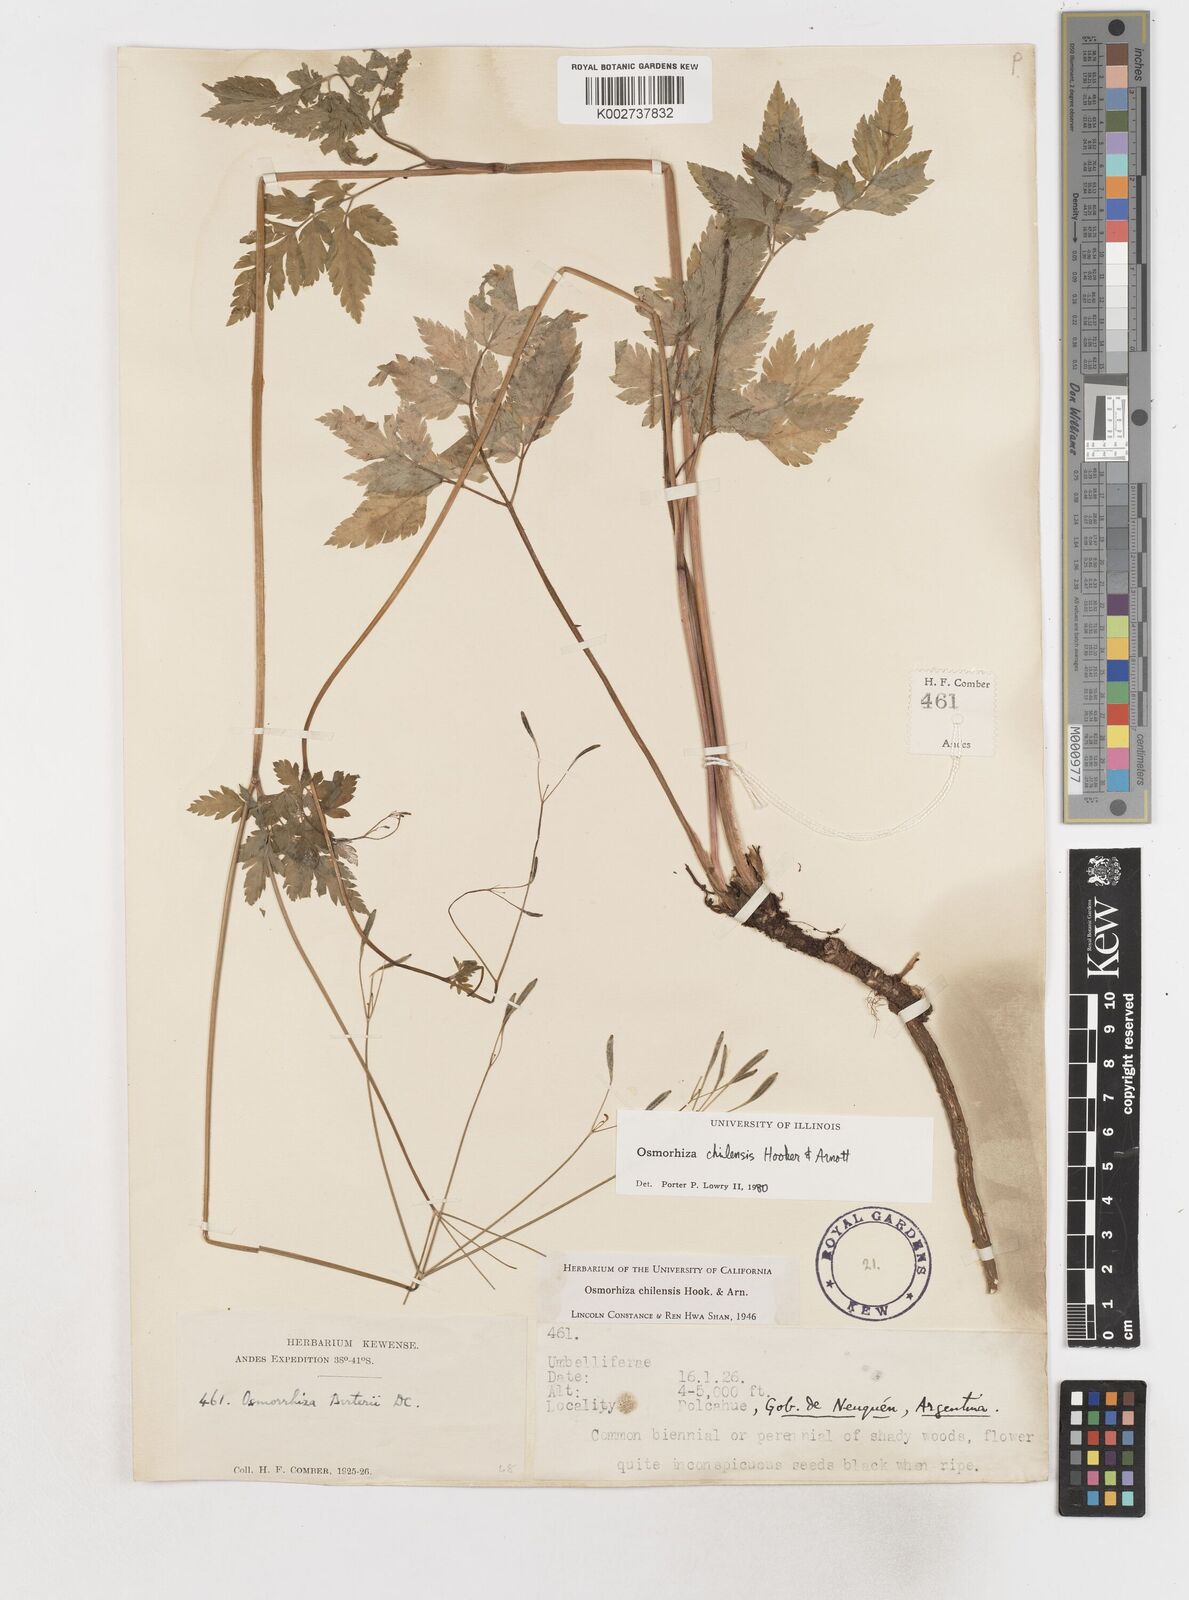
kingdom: Plantae
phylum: Tracheophyta
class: Magnoliopsida
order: Apiales
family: Apiaceae
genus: Osmorhiza
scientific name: Osmorhiza berteroi
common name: Mountain sweet cicely
